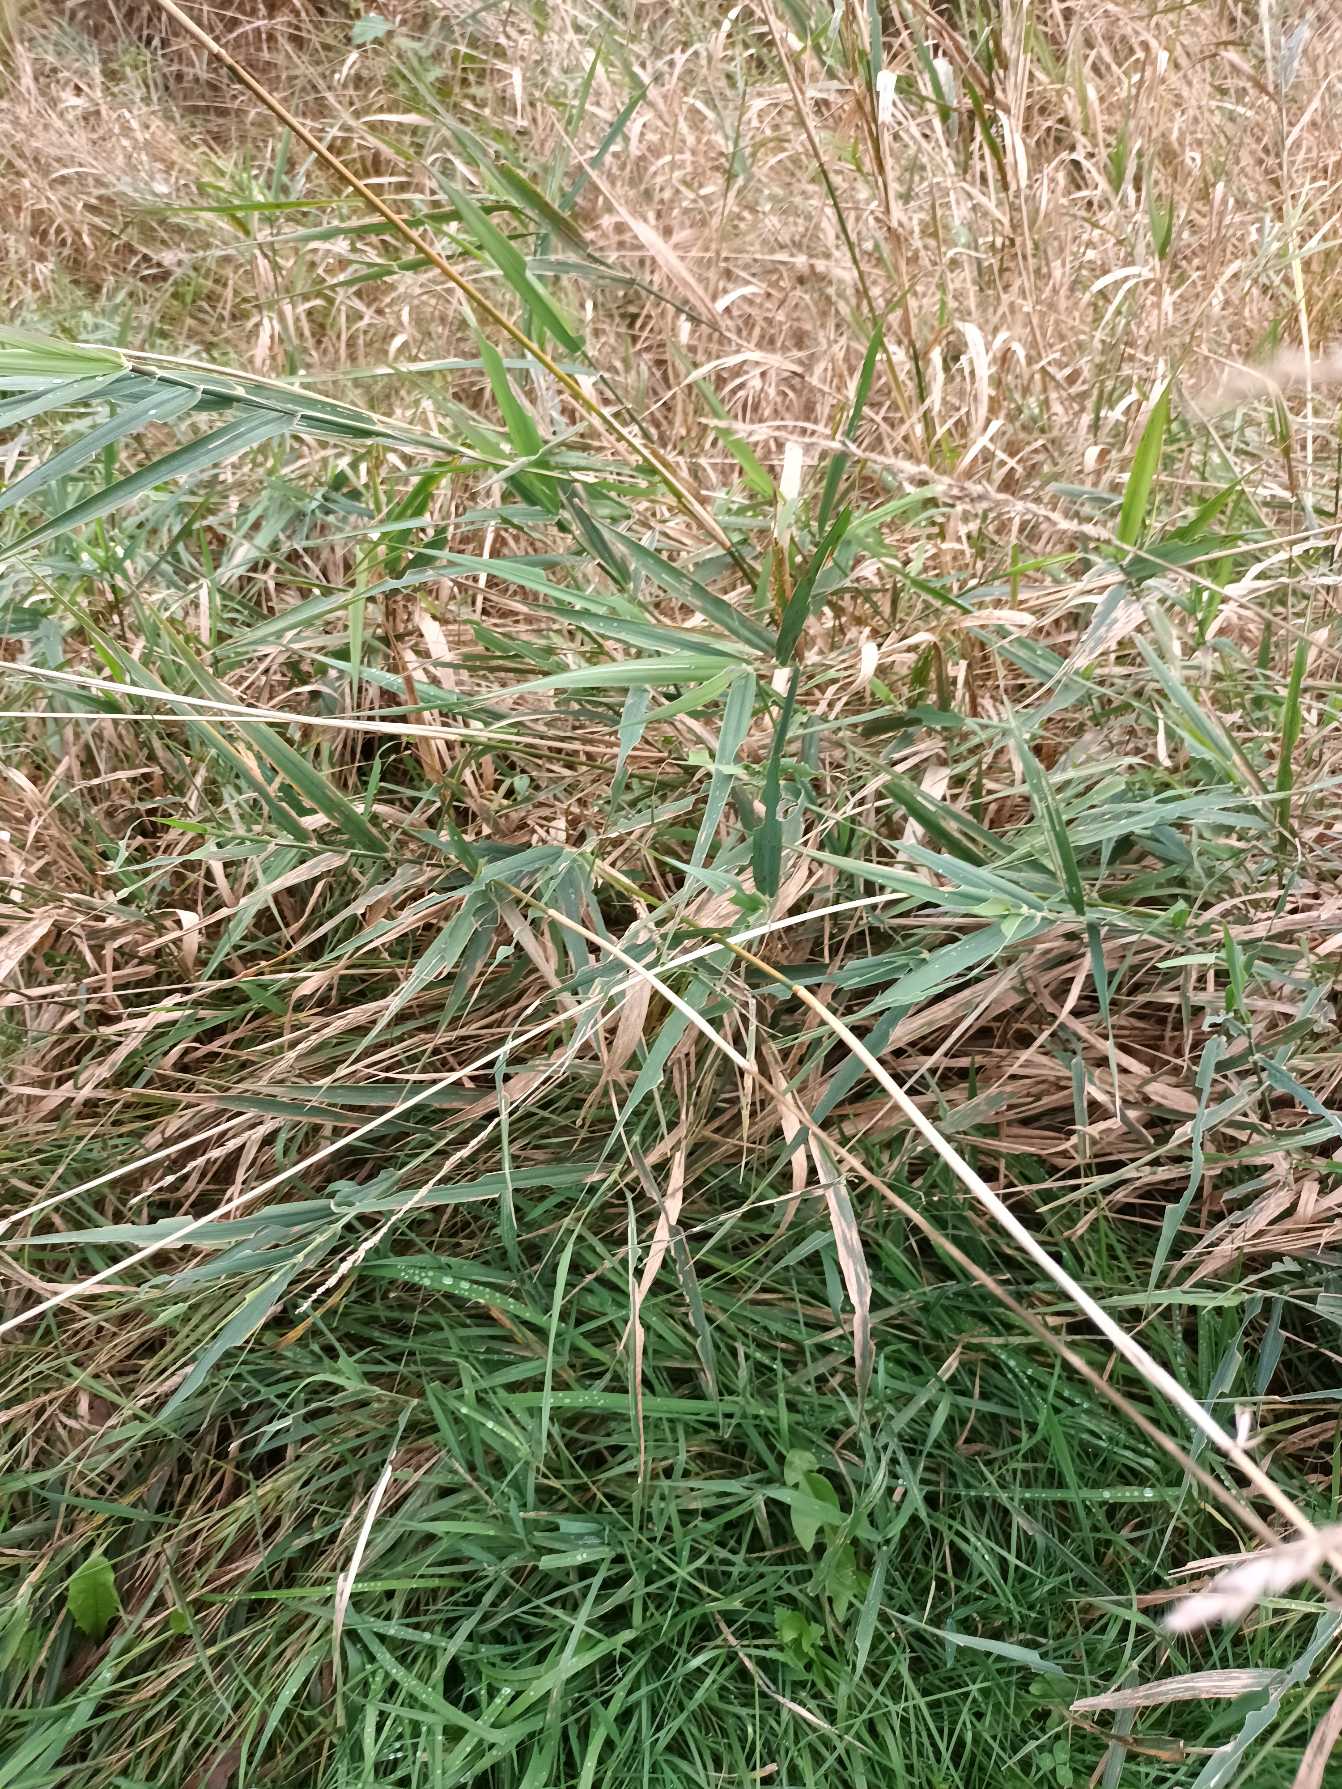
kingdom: Plantae
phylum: Tracheophyta
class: Liliopsida
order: Poales
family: Poaceae
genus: Phalaris
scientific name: Phalaris arundinacea
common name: Rørgræs
